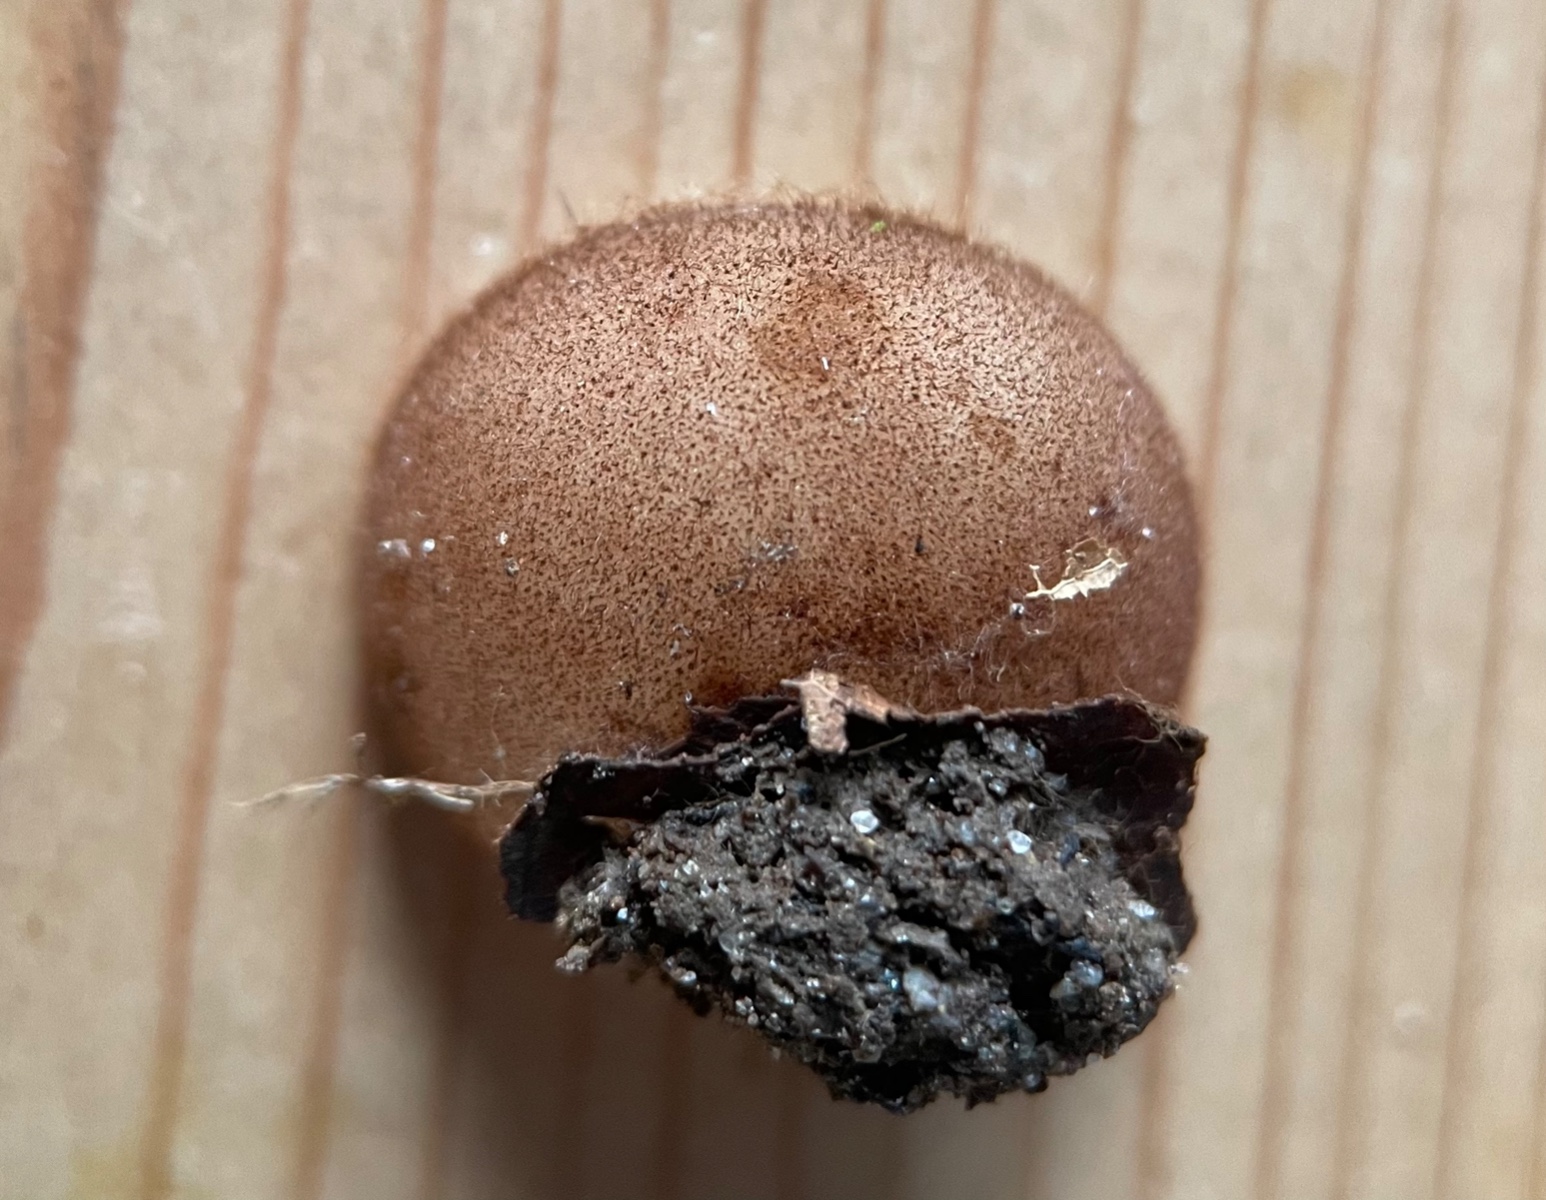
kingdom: Fungi
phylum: Ascomycota
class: Pezizomycetes
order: Pezizales
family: Pyronemataceae
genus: Humaria
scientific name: Humaria hemisphaerica
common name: halvkugleformet børstebæger
